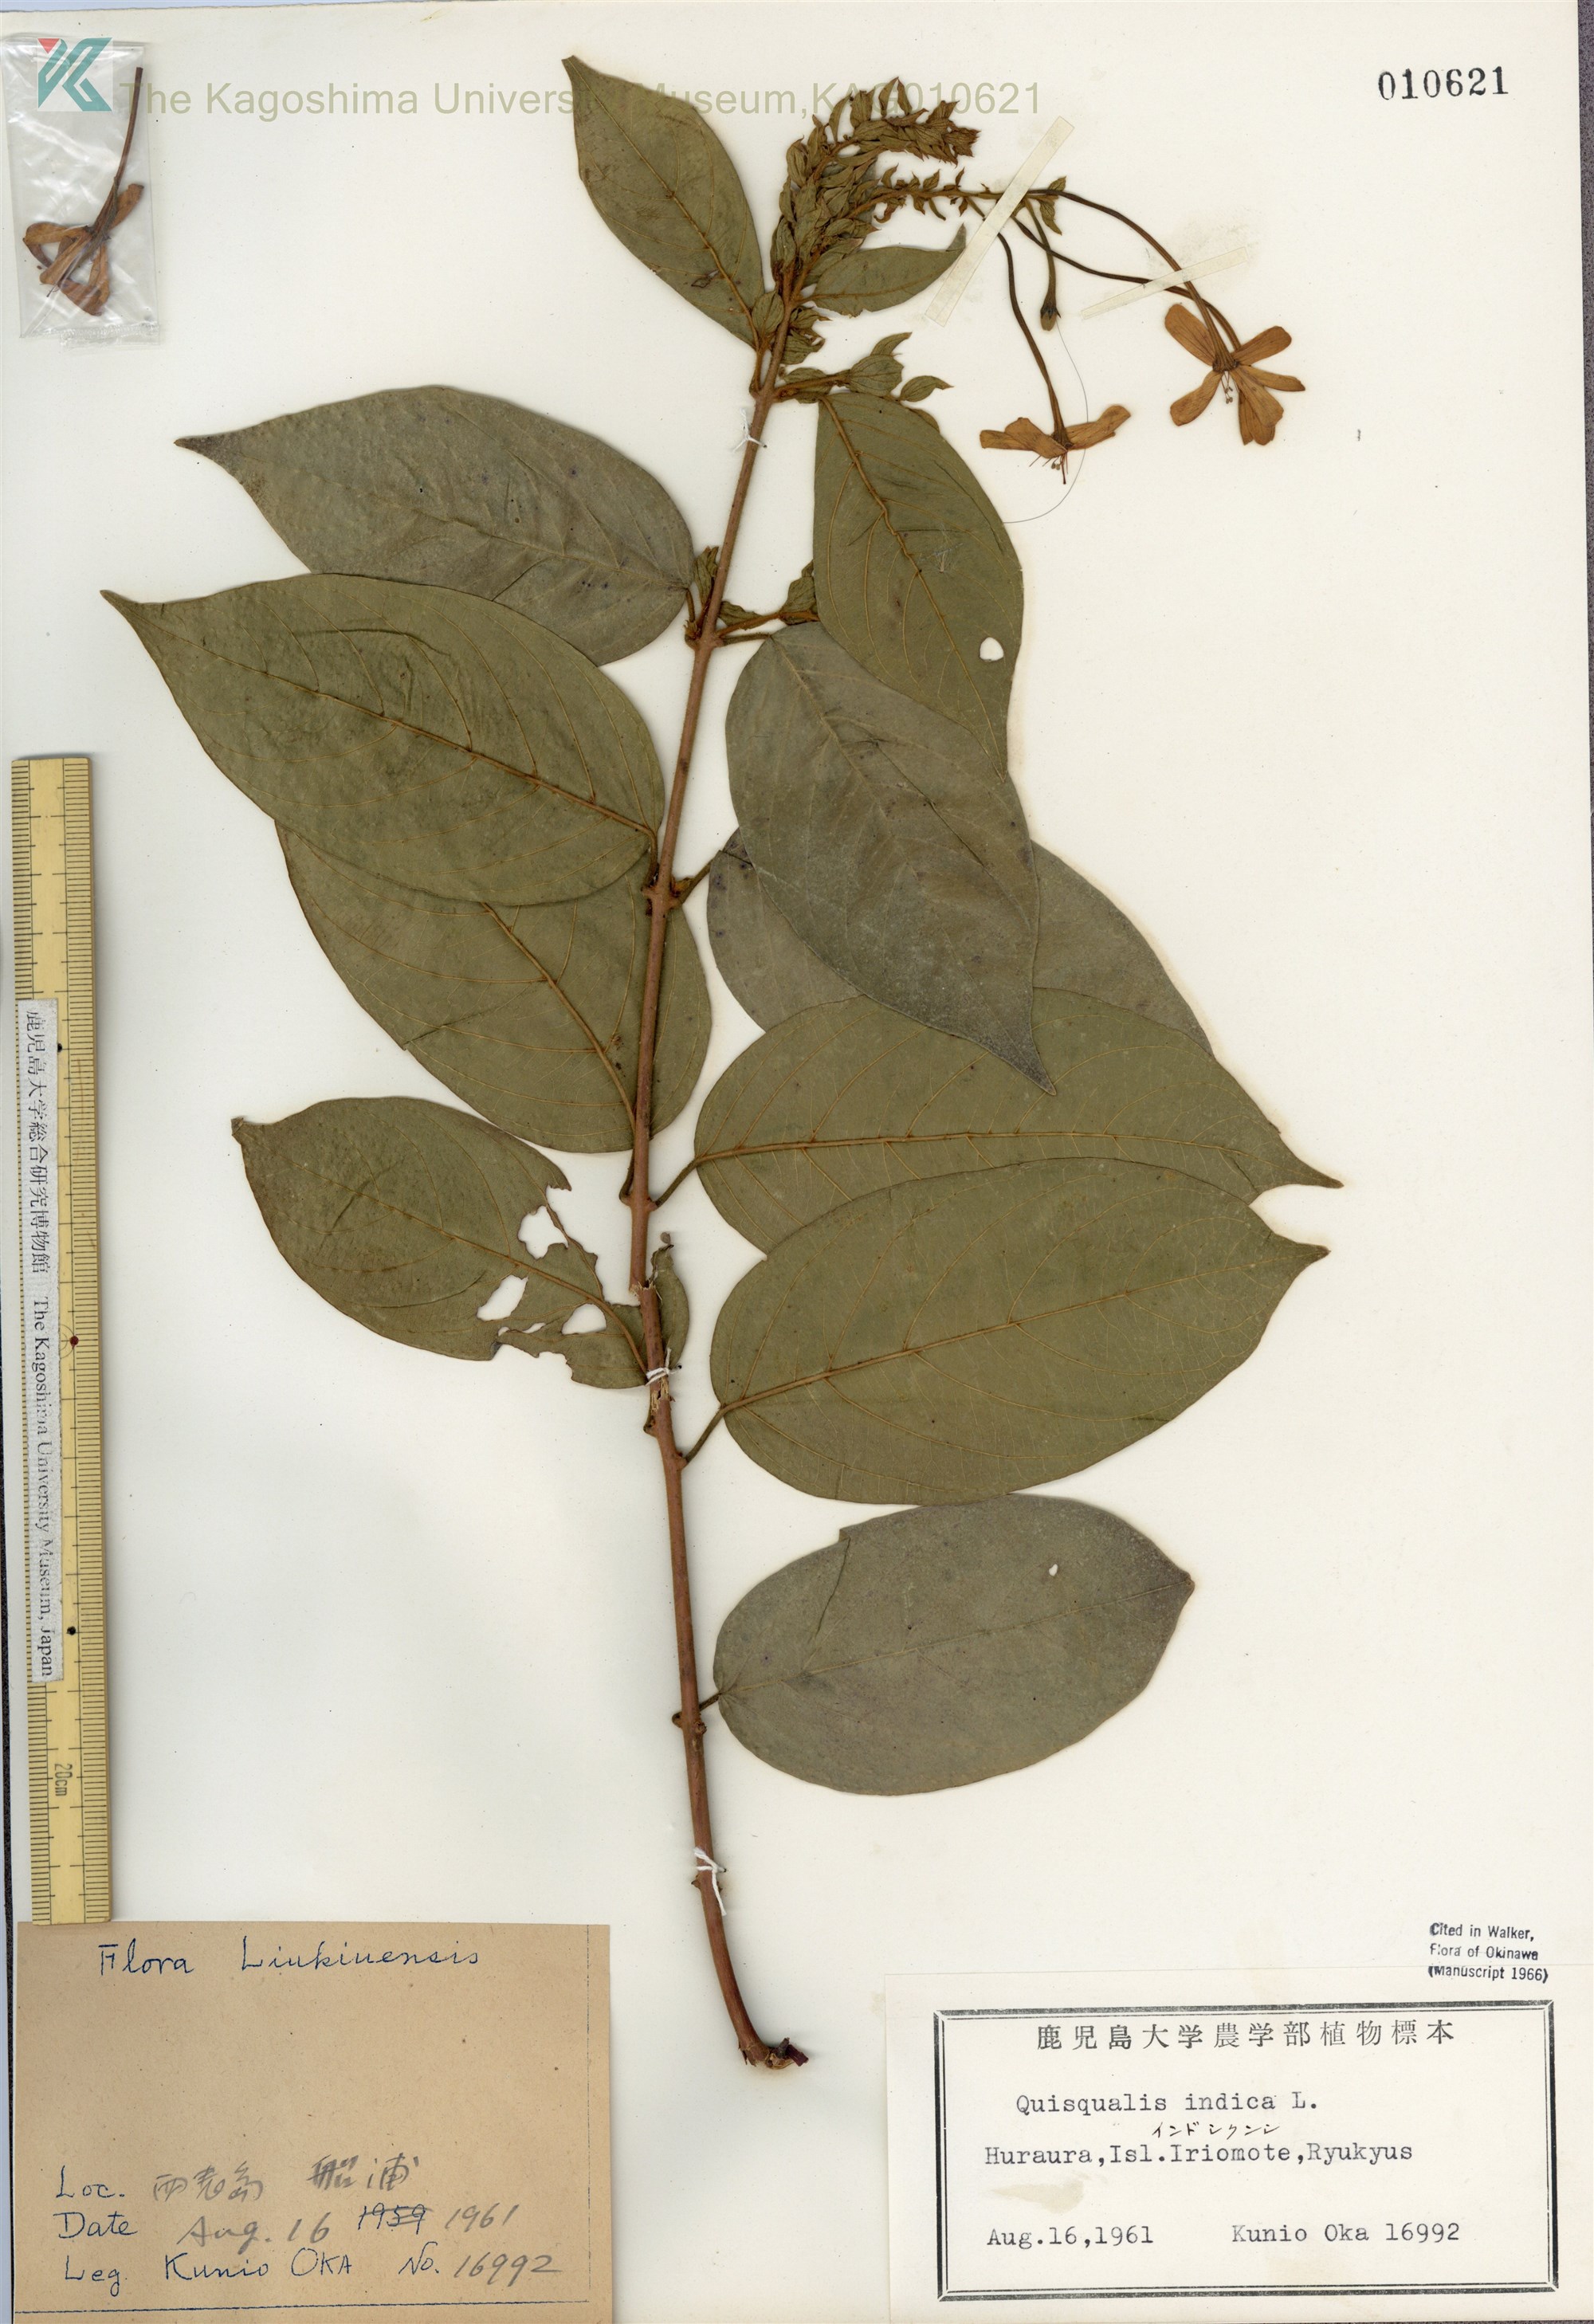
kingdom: Plantae
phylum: Tracheophyta
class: Magnoliopsida
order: Myrtales
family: Combretaceae
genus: Combretum
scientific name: Combretum indicum
